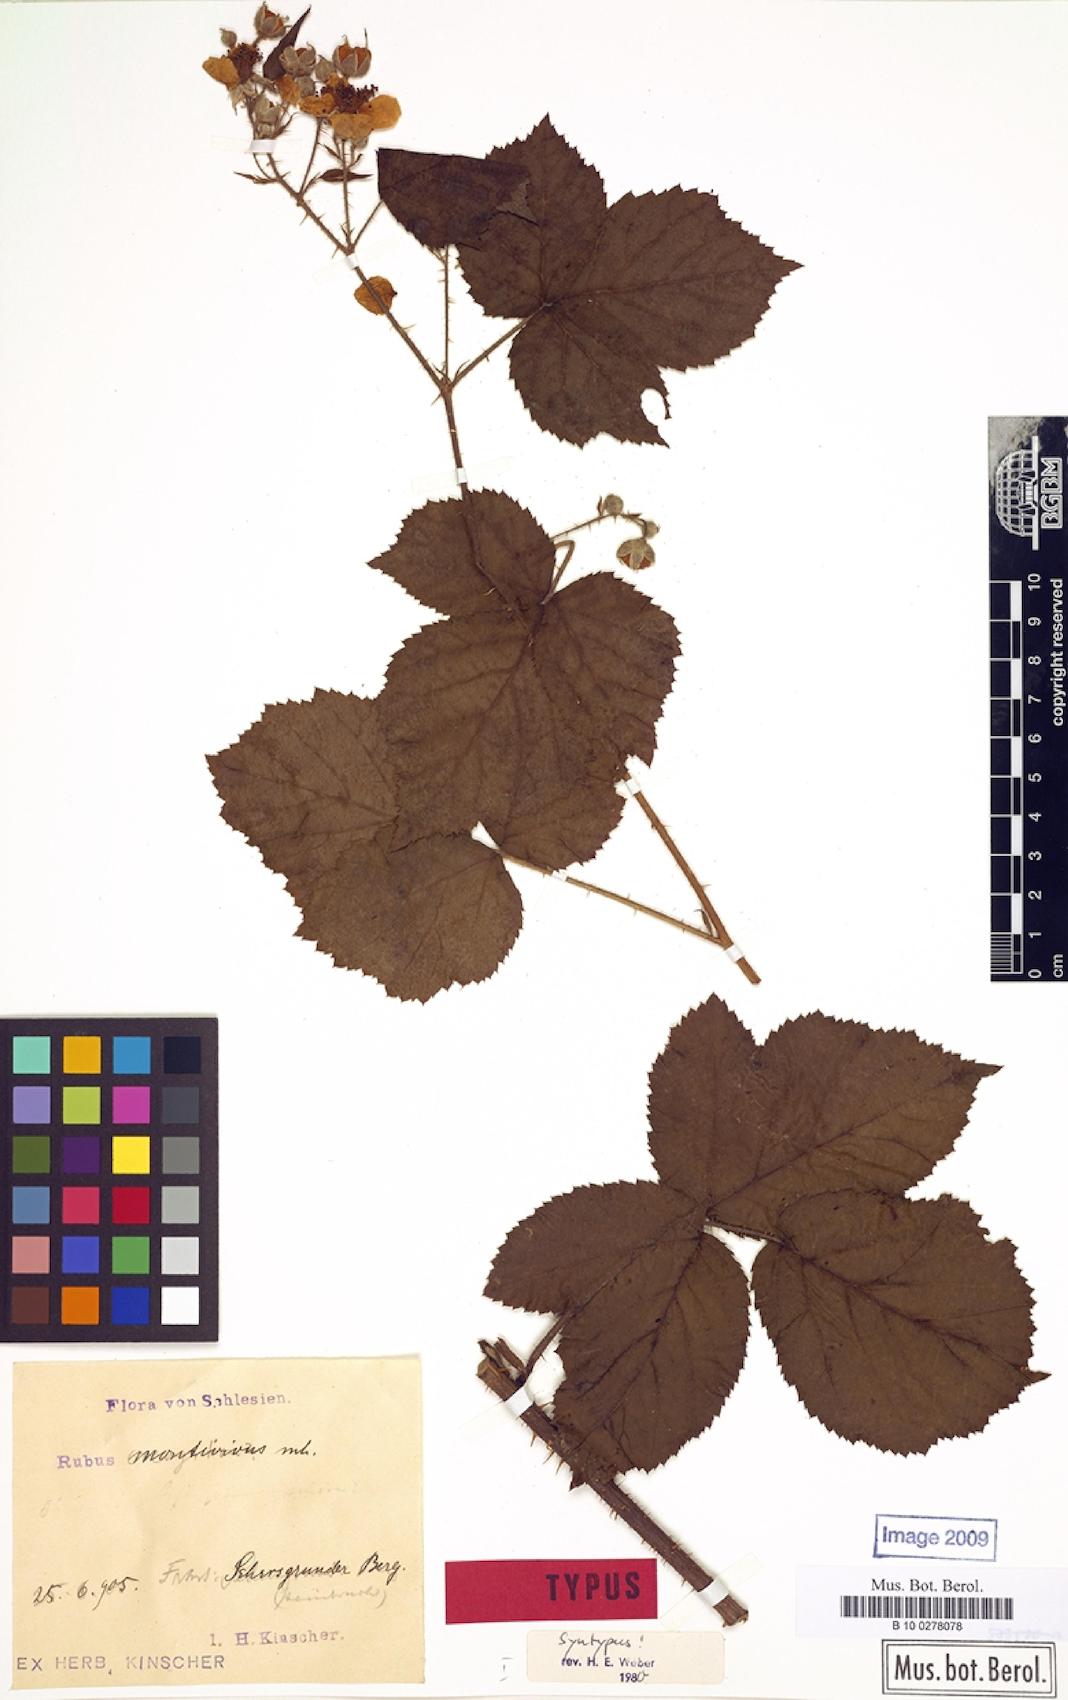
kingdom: Plantae
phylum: Tracheophyta
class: Magnoliopsida
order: Rosales
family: Rosaceae
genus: Rubus
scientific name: Rubus dollnensis
